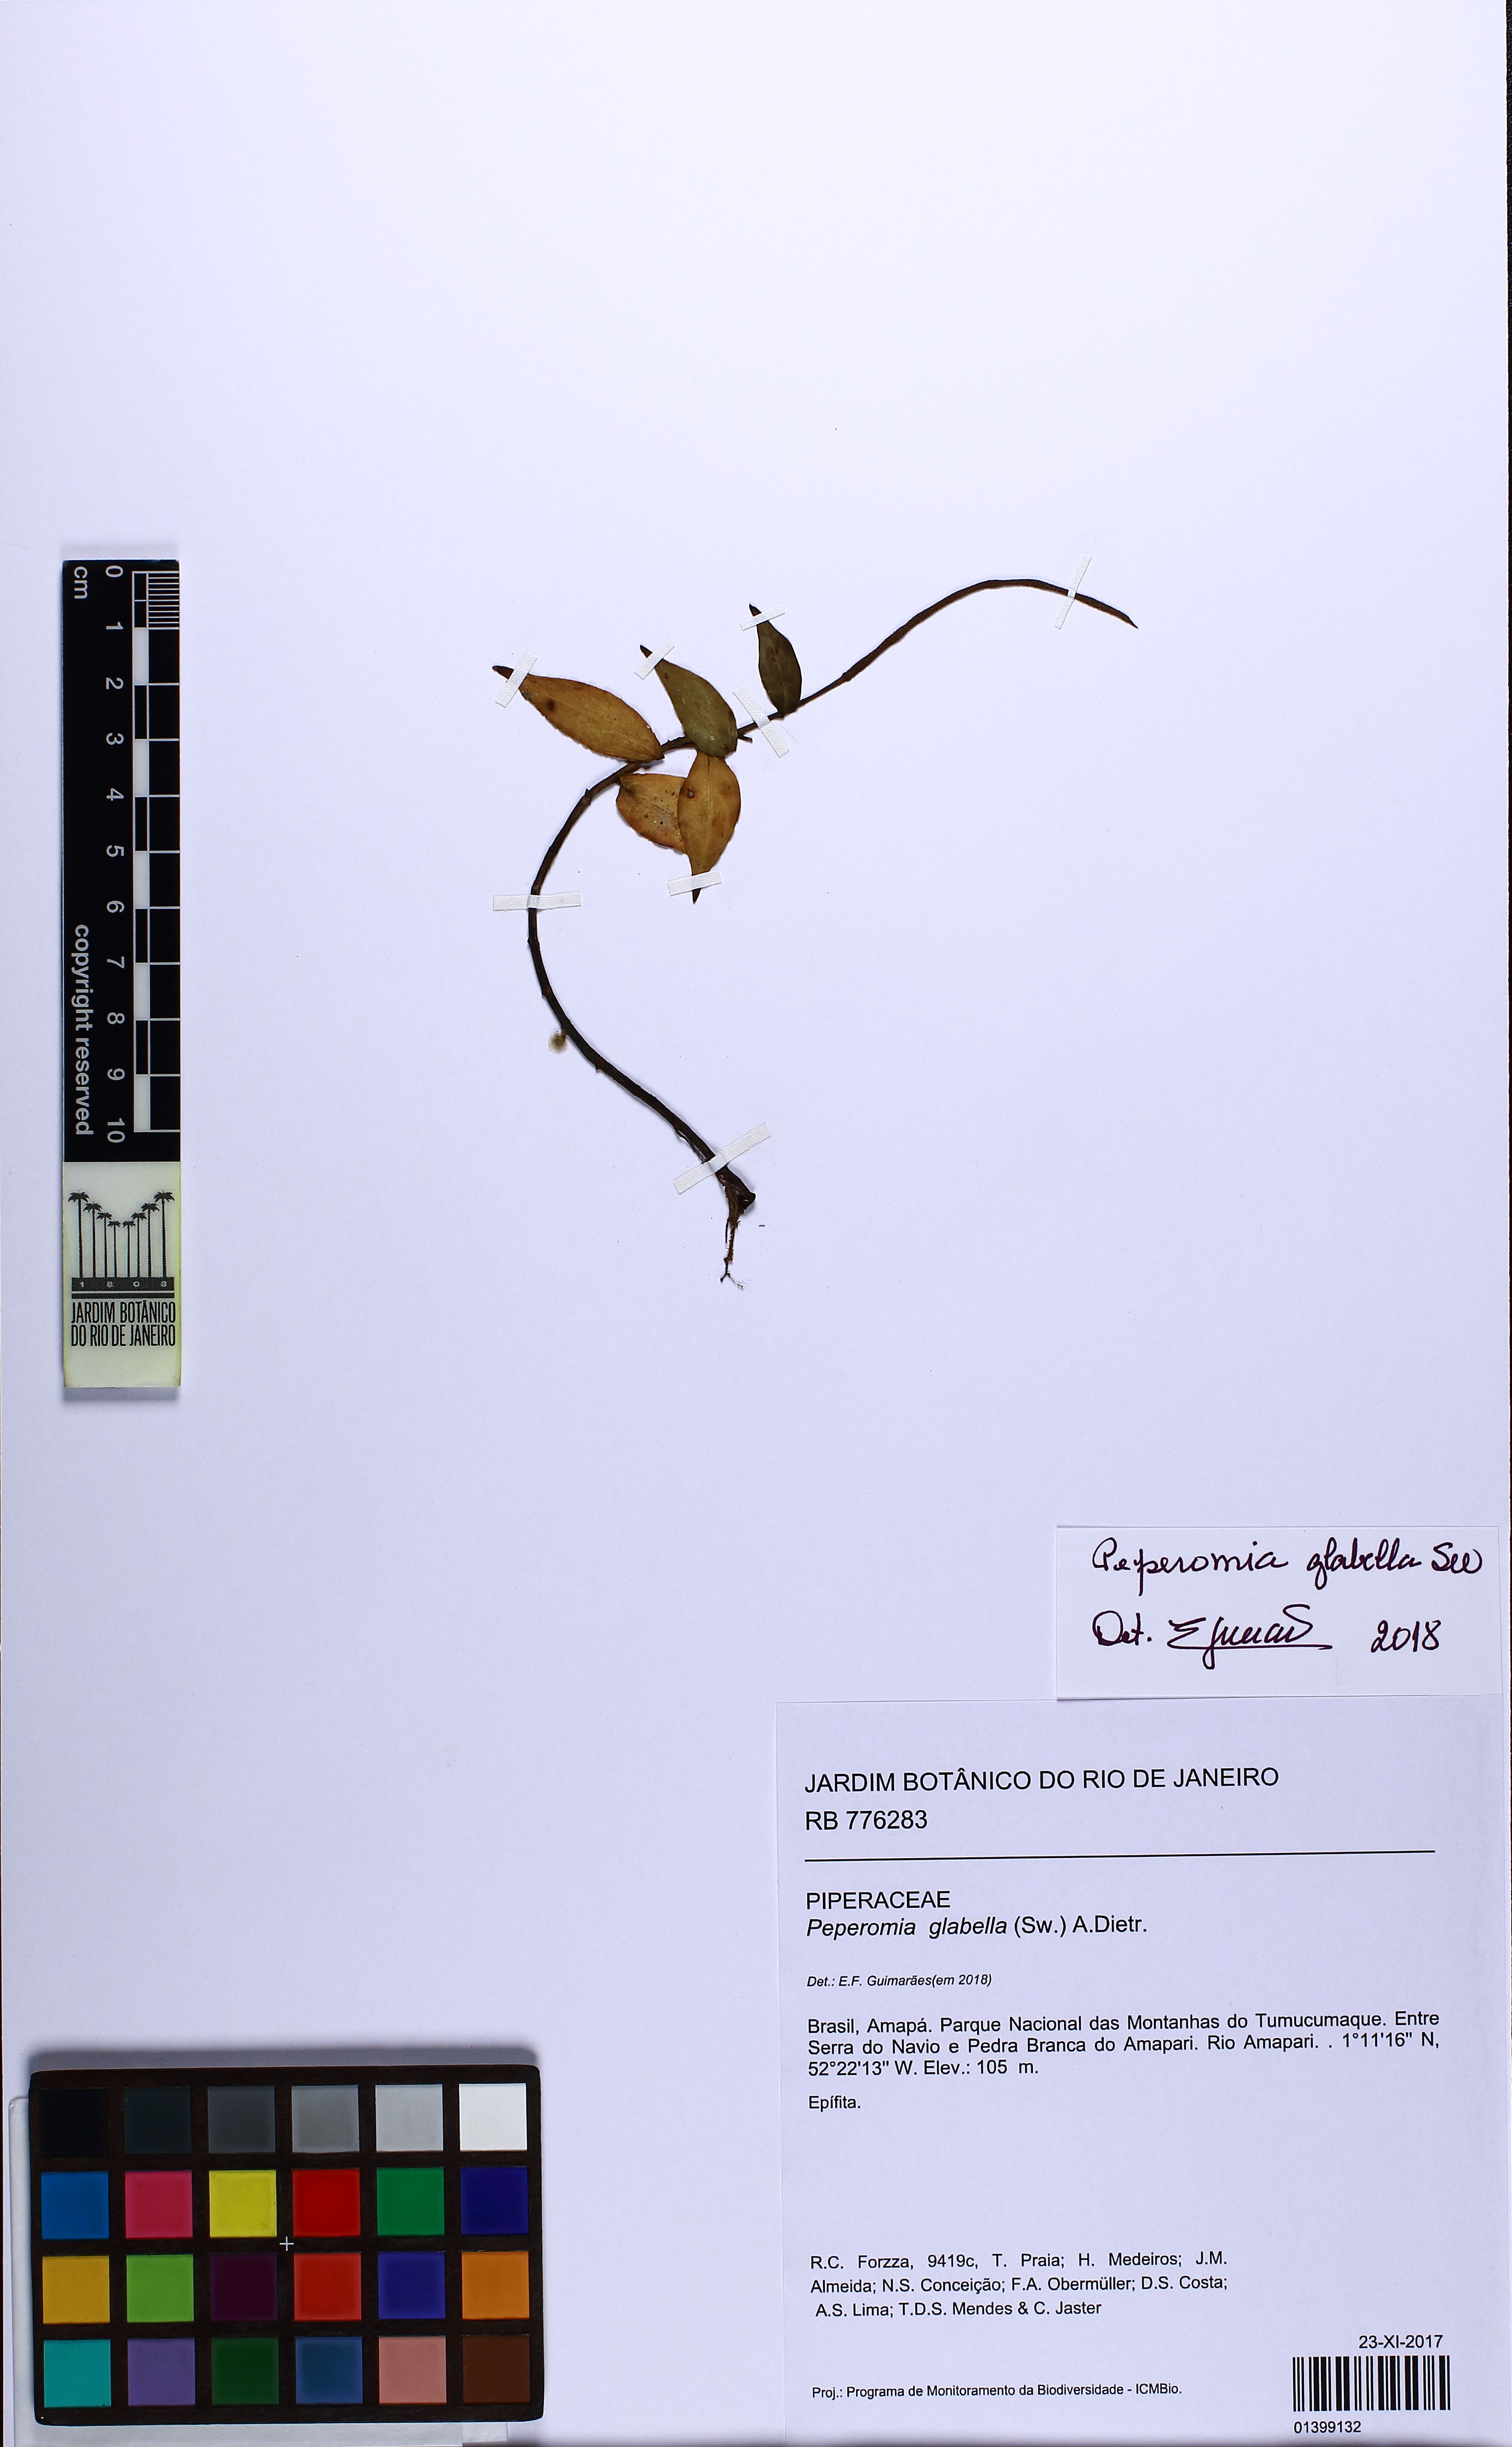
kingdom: Plantae
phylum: Tracheophyta
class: Magnoliopsida
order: Piperales
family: Piperaceae
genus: Peperomia
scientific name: Peperomia elongata
